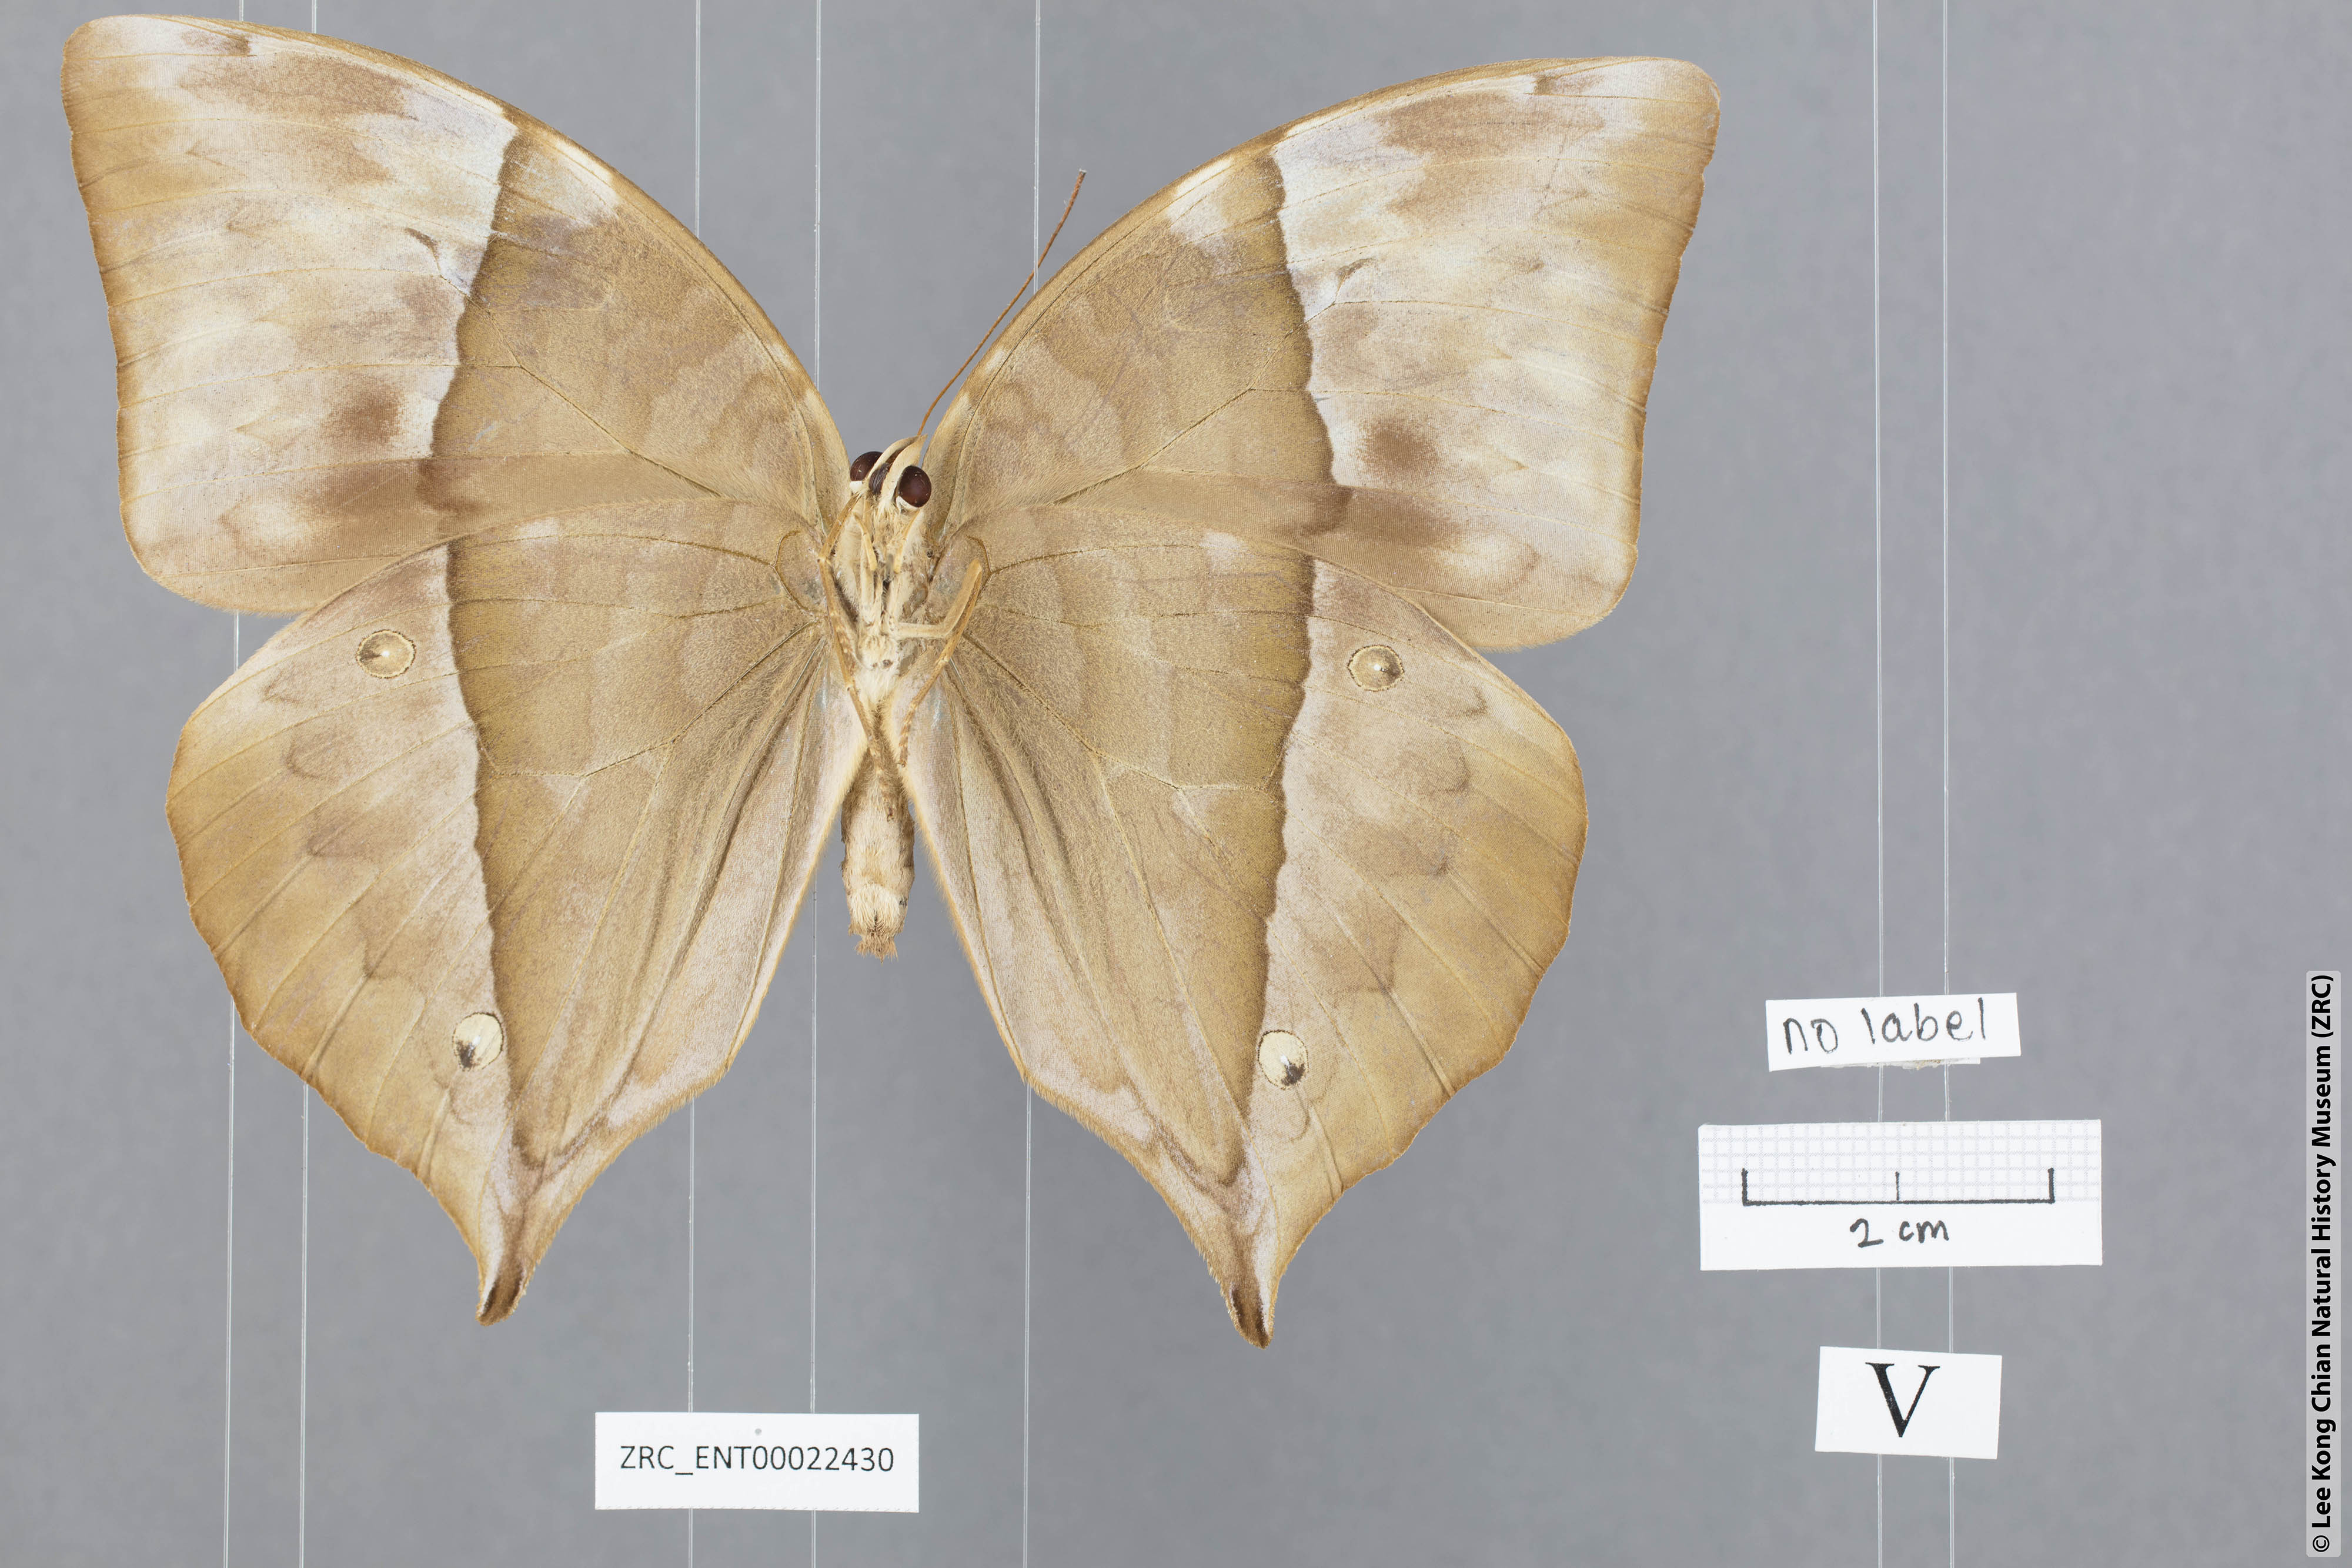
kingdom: Animalia
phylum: Arthropoda
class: Insecta
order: Lepidoptera
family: Nymphalidae
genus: Zeuxidia
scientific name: Zeuxidia doubledaii
